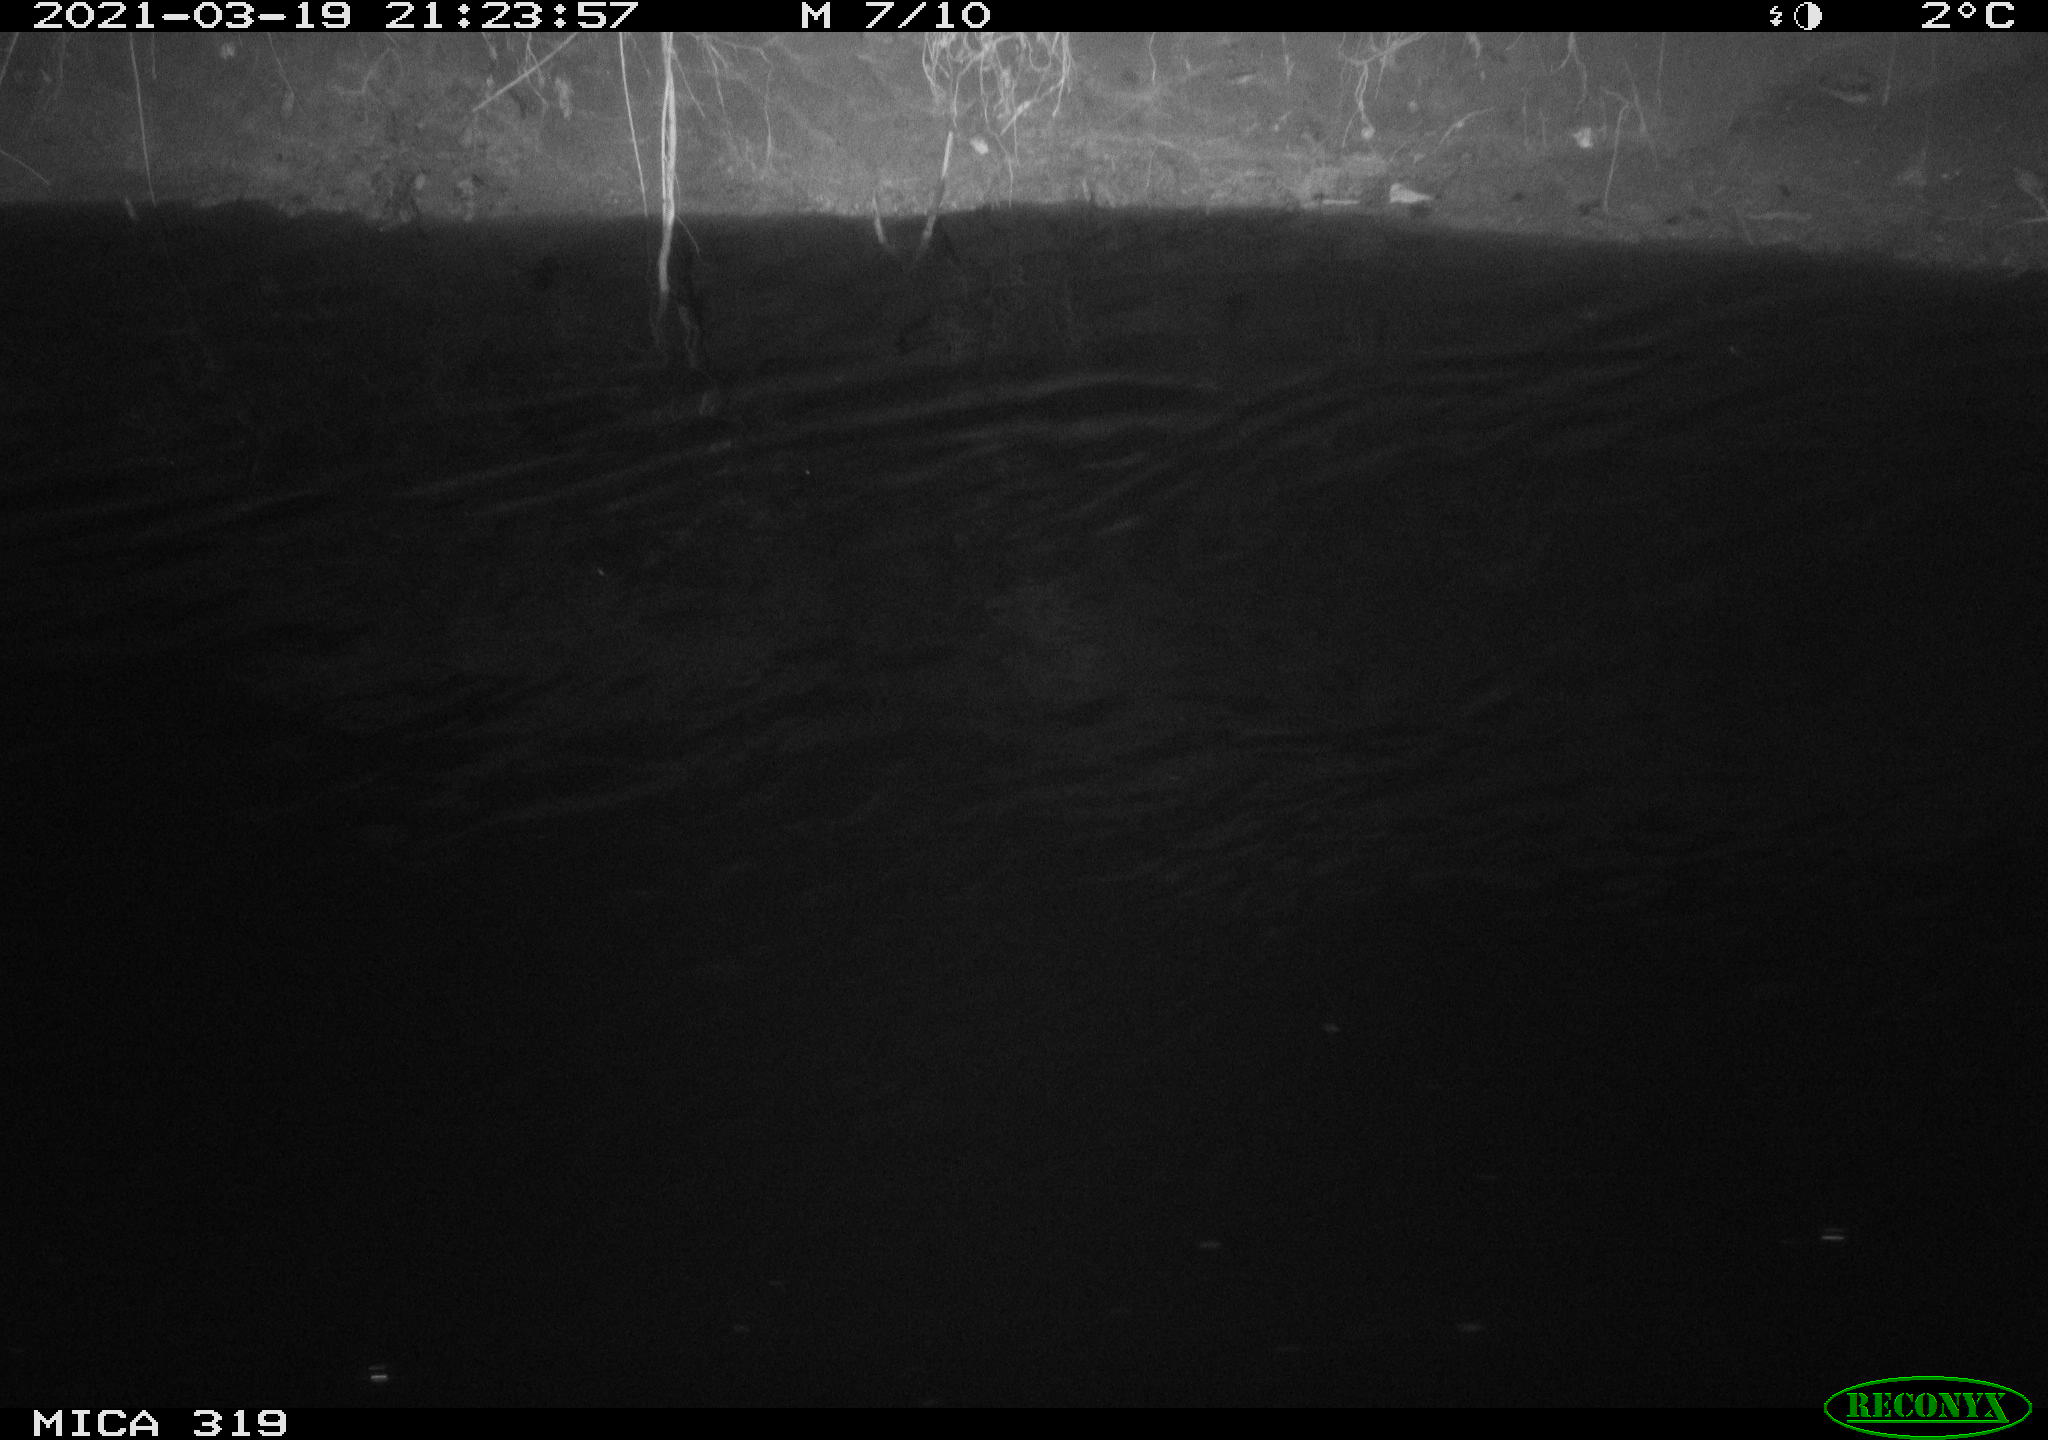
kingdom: Animalia
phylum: Chordata
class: Aves
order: Anseriformes
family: Anatidae
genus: Anas
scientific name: Anas platyrhynchos
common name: Mallard
